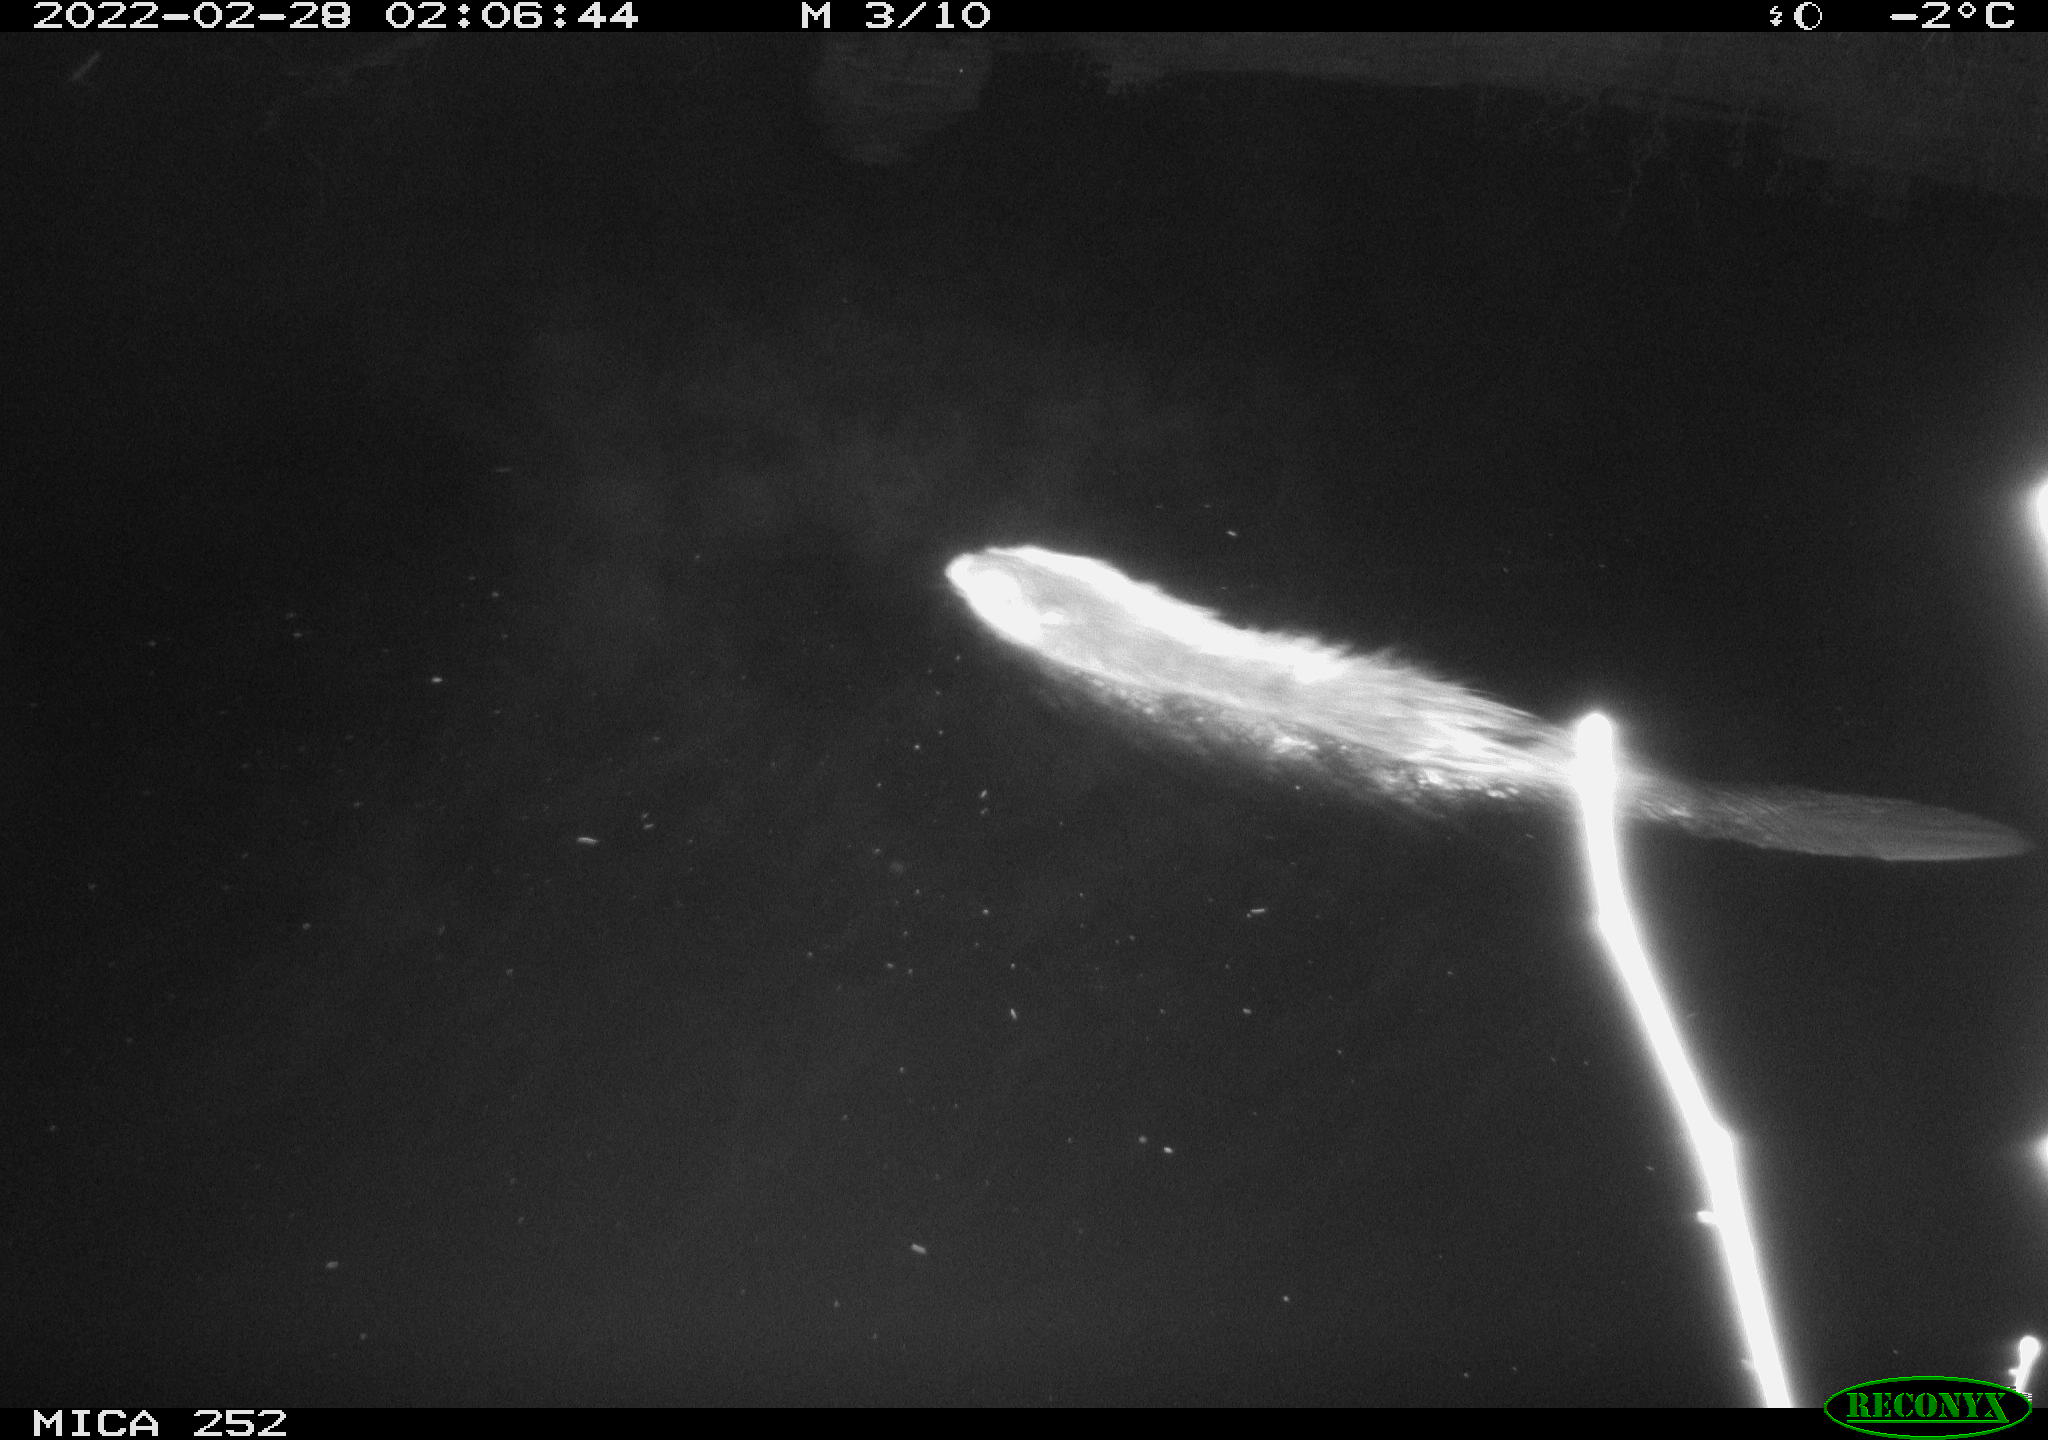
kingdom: Animalia
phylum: Chordata
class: Mammalia
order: Rodentia
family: Castoridae
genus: Castor
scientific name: Castor fiber
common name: Eurasian beaver
